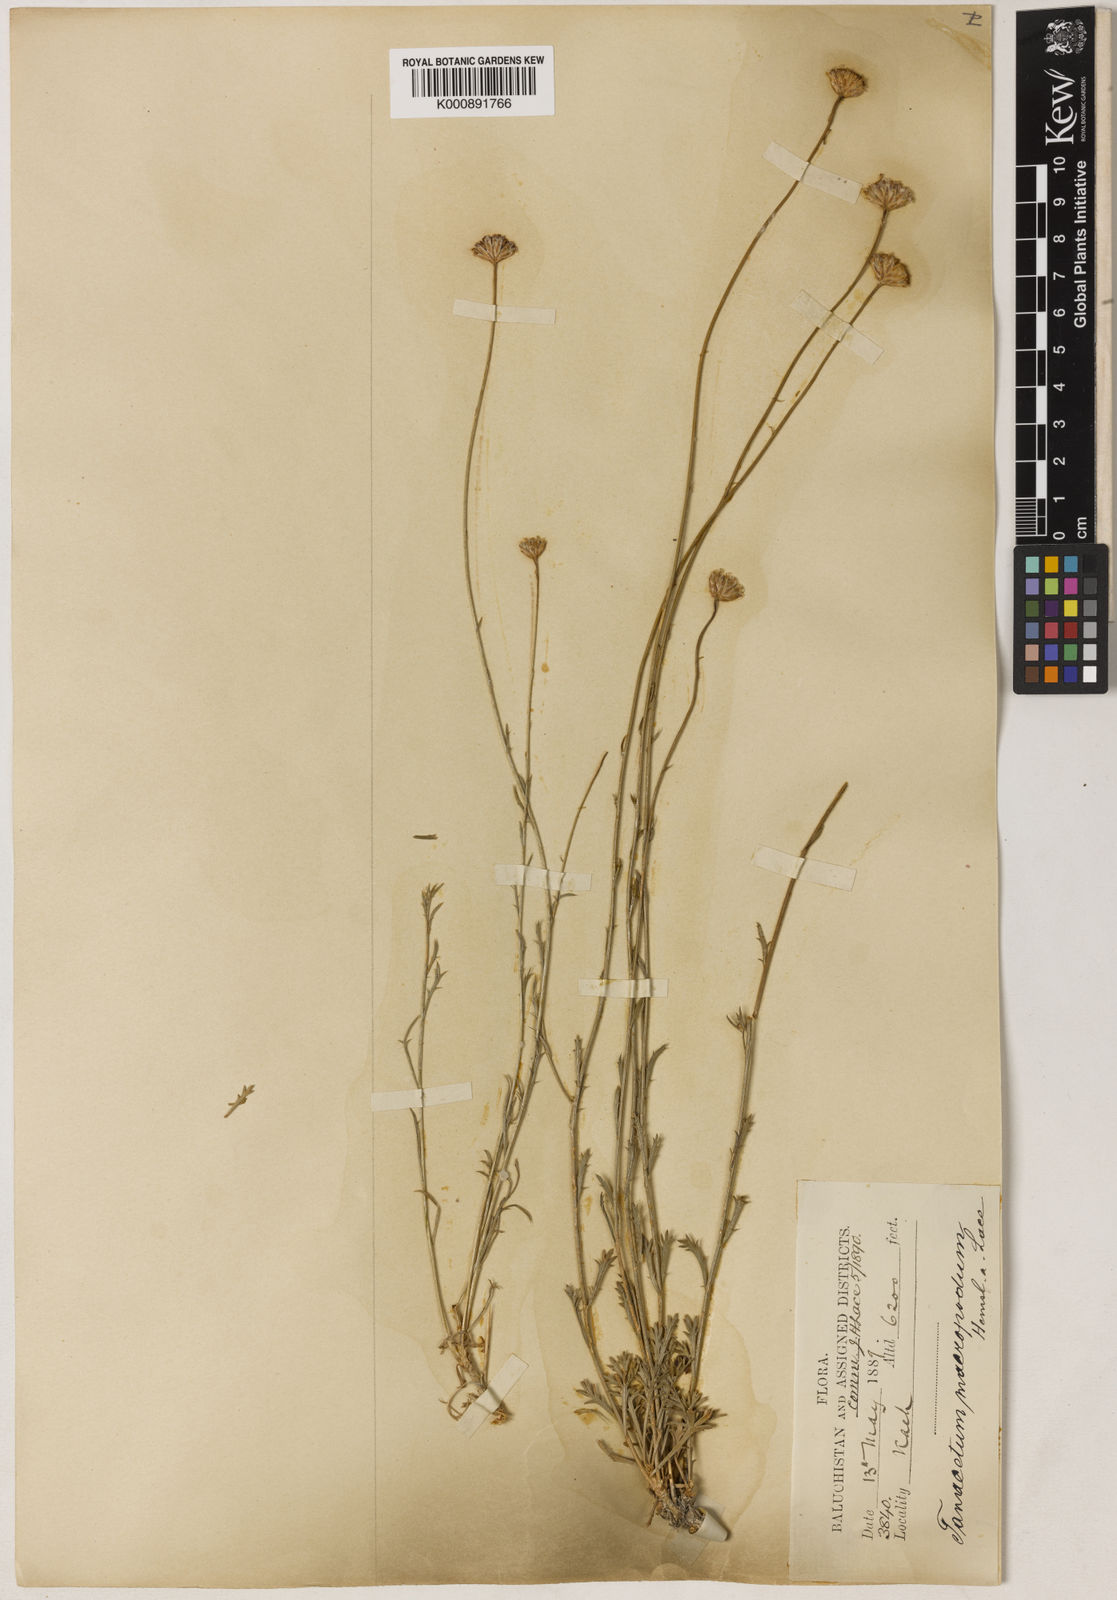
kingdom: Plantae
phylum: Tracheophyta
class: Magnoliopsida
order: Asterales
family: Asteraceae
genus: Xylanthemum
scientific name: Xylanthemum macropodum
